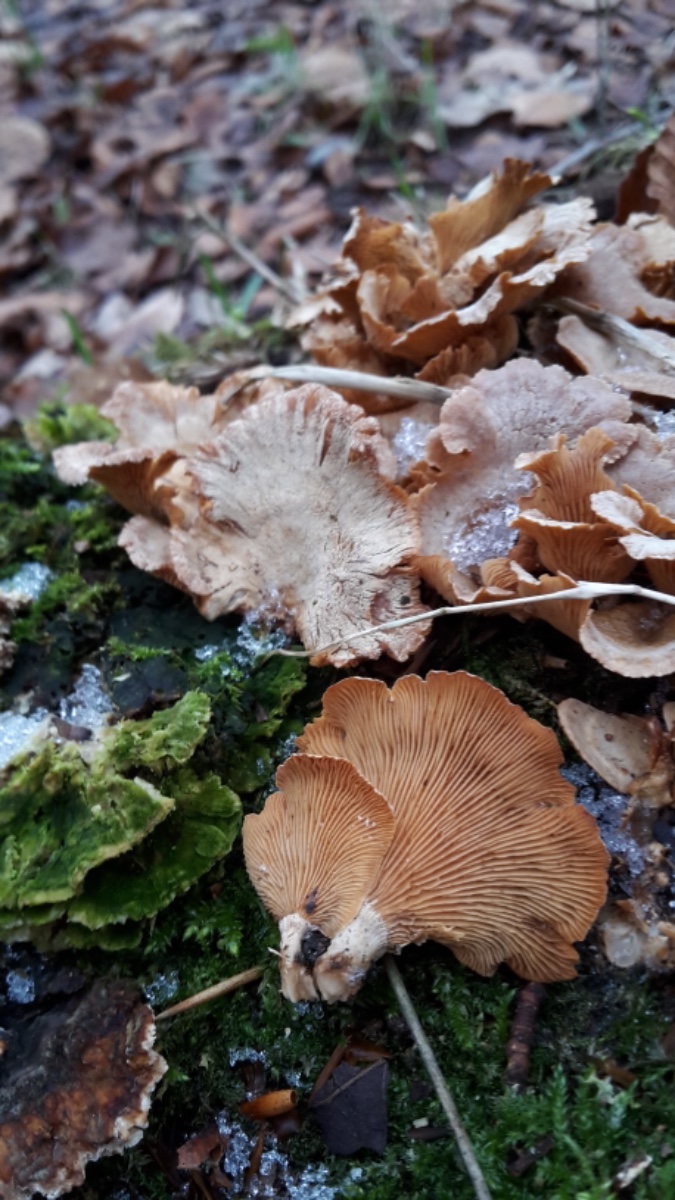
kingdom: Fungi
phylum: Basidiomycota
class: Agaricomycetes
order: Agaricales
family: Mycenaceae
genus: Panellus
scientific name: Panellus stipticus
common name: kliddet epaulethat
